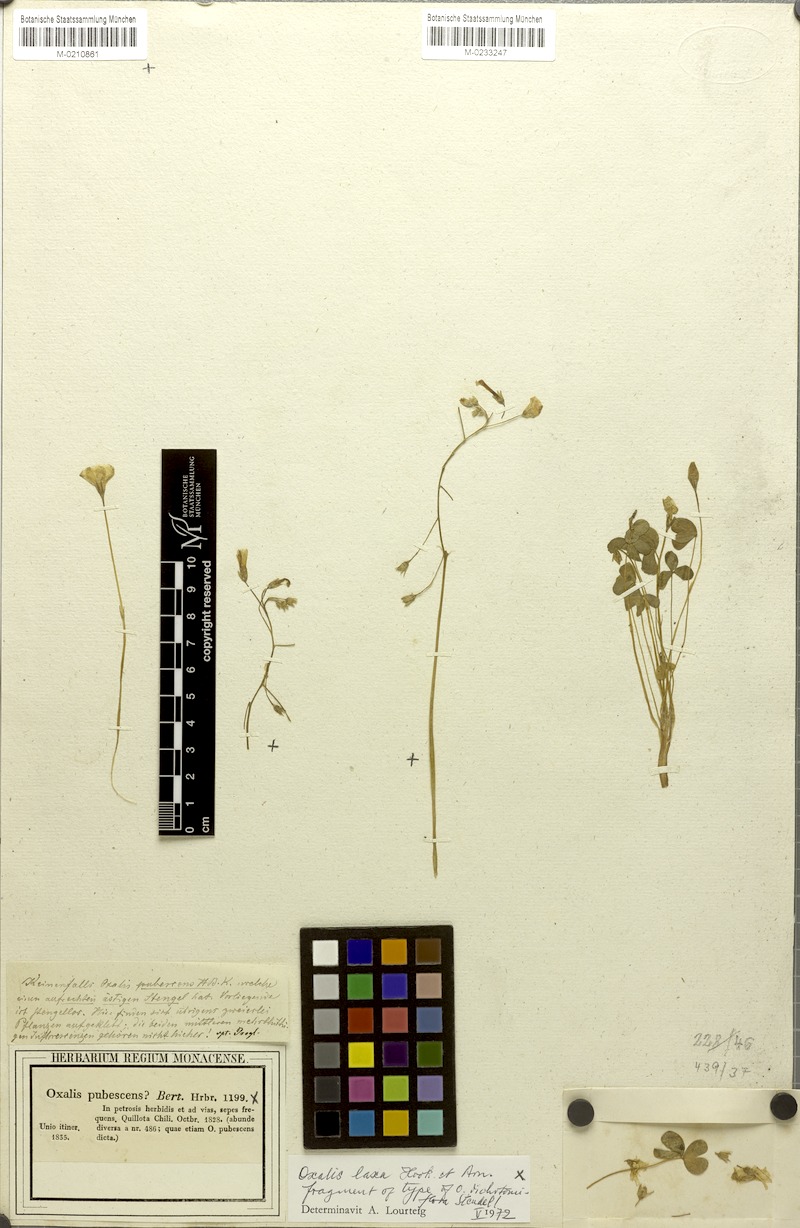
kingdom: Plantae
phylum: Tracheophyta
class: Magnoliopsida
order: Oxalidales
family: Oxalidaceae
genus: Oxalis
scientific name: Oxalis laxa
